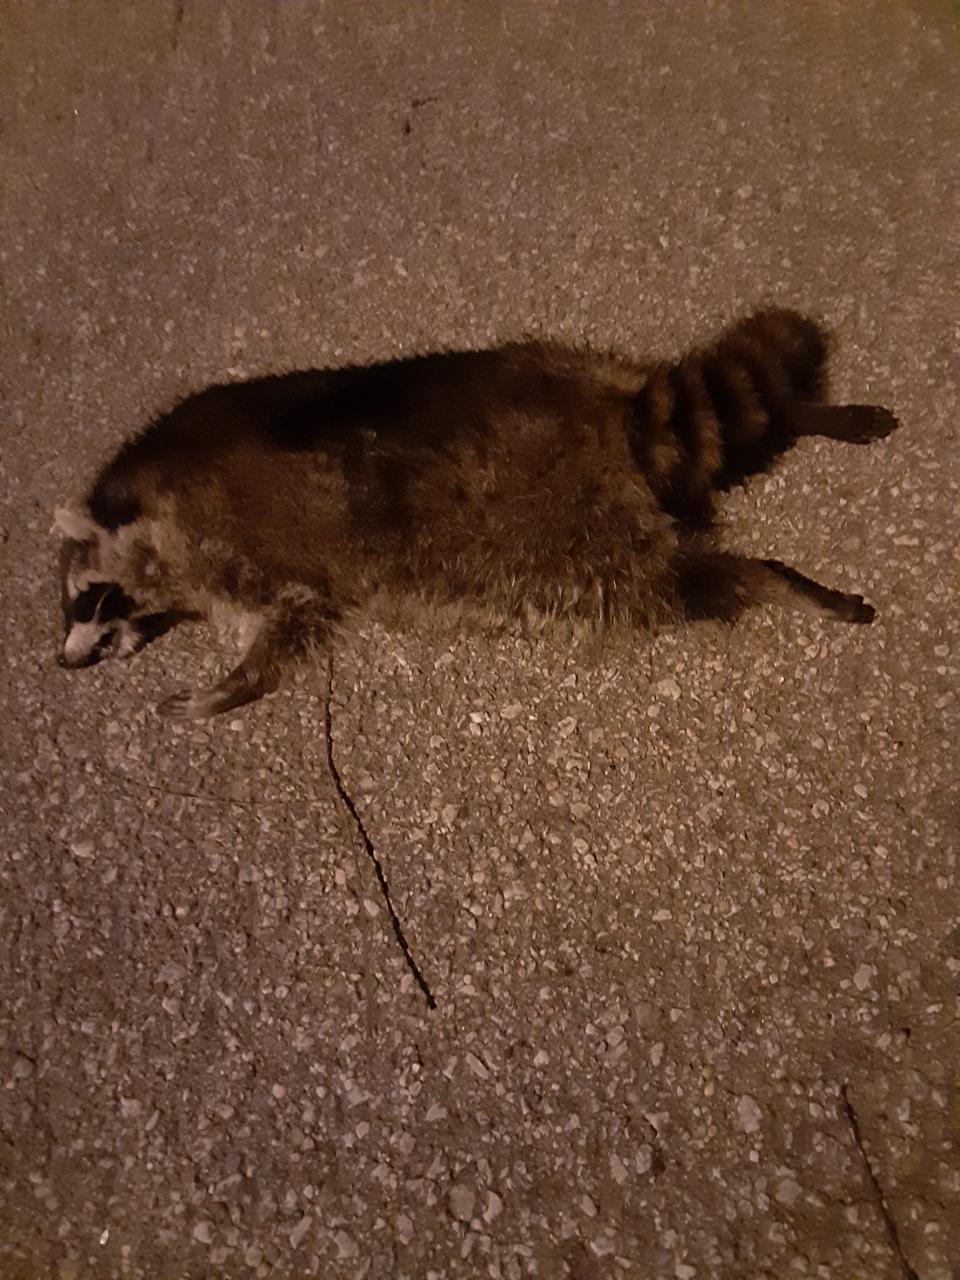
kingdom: Animalia
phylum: Chordata
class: Mammalia
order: Carnivora
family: Procyonidae
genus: Procyon
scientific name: Procyon lotor
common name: Raccoon
